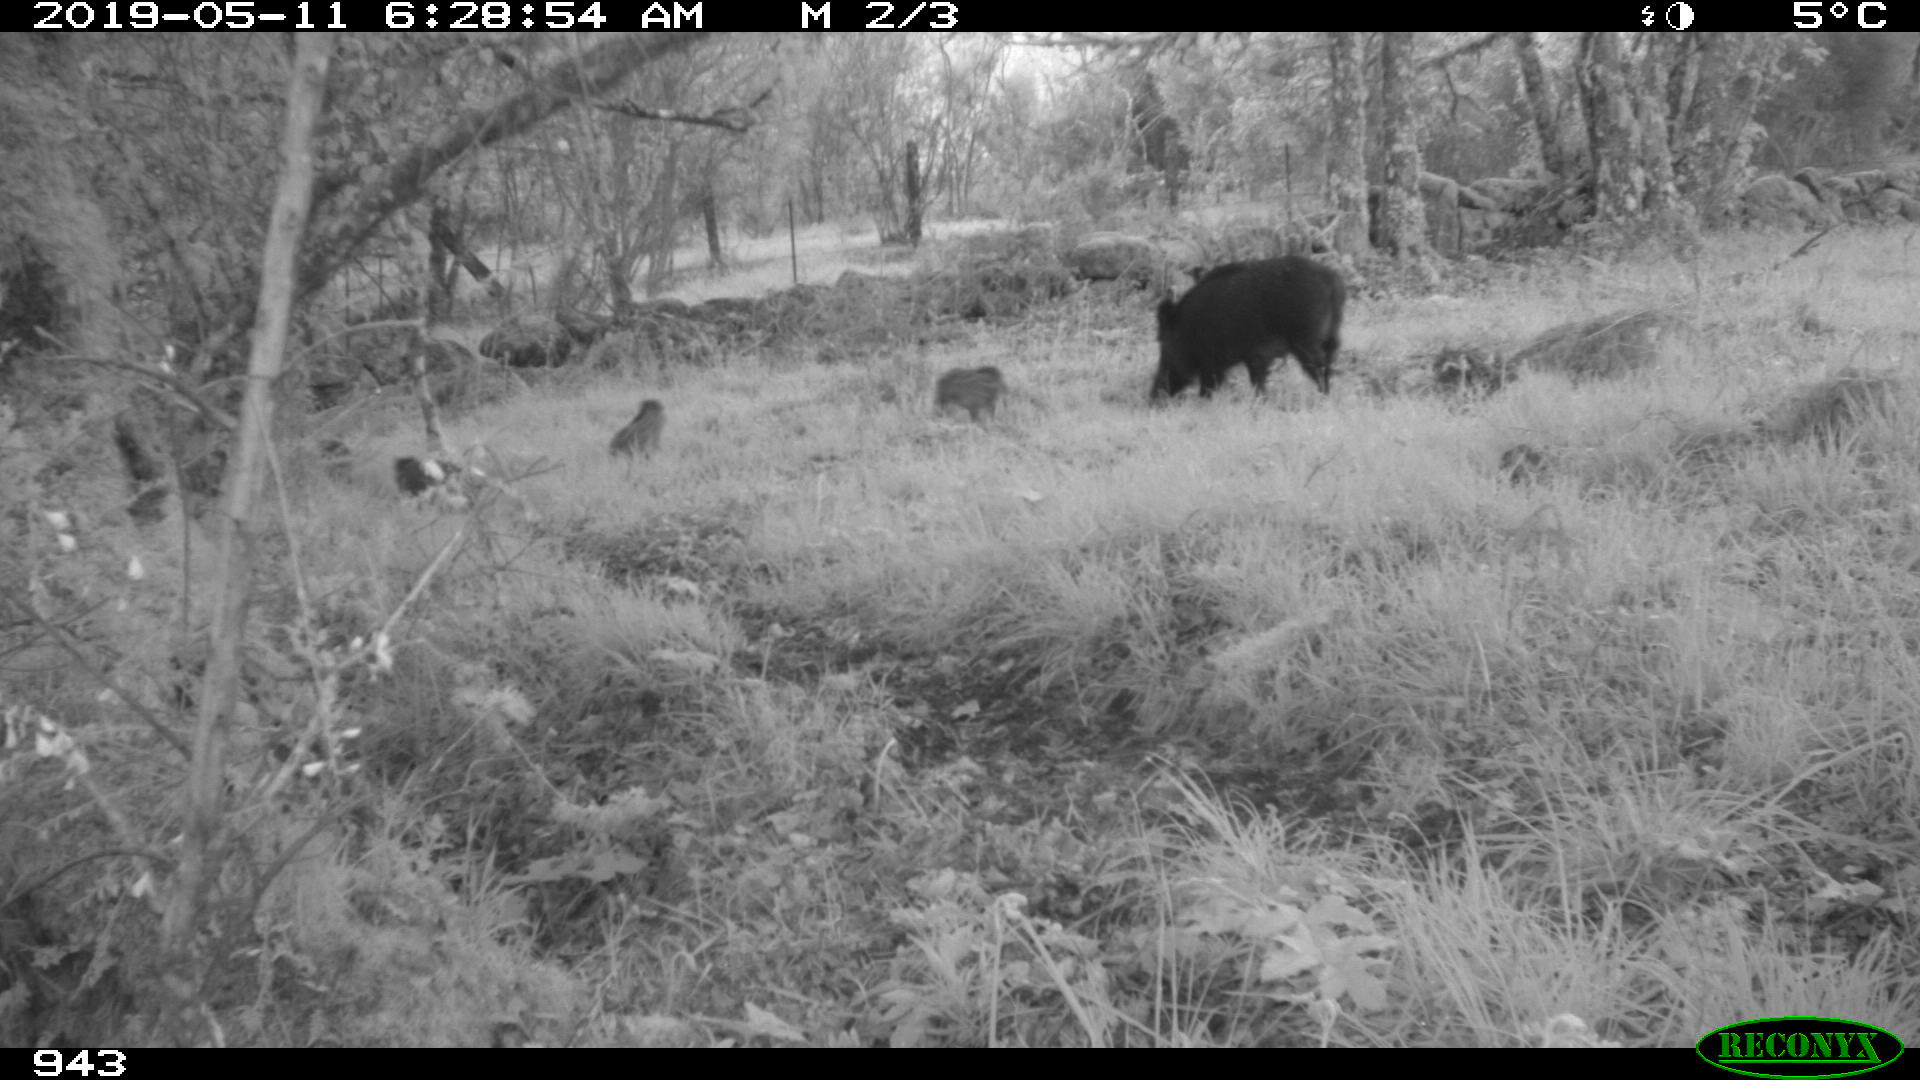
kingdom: Animalia
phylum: Chordata
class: Mammalia
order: Artiodactyla
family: Suidae
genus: Sus
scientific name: Sus scrofa
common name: Wild boar
